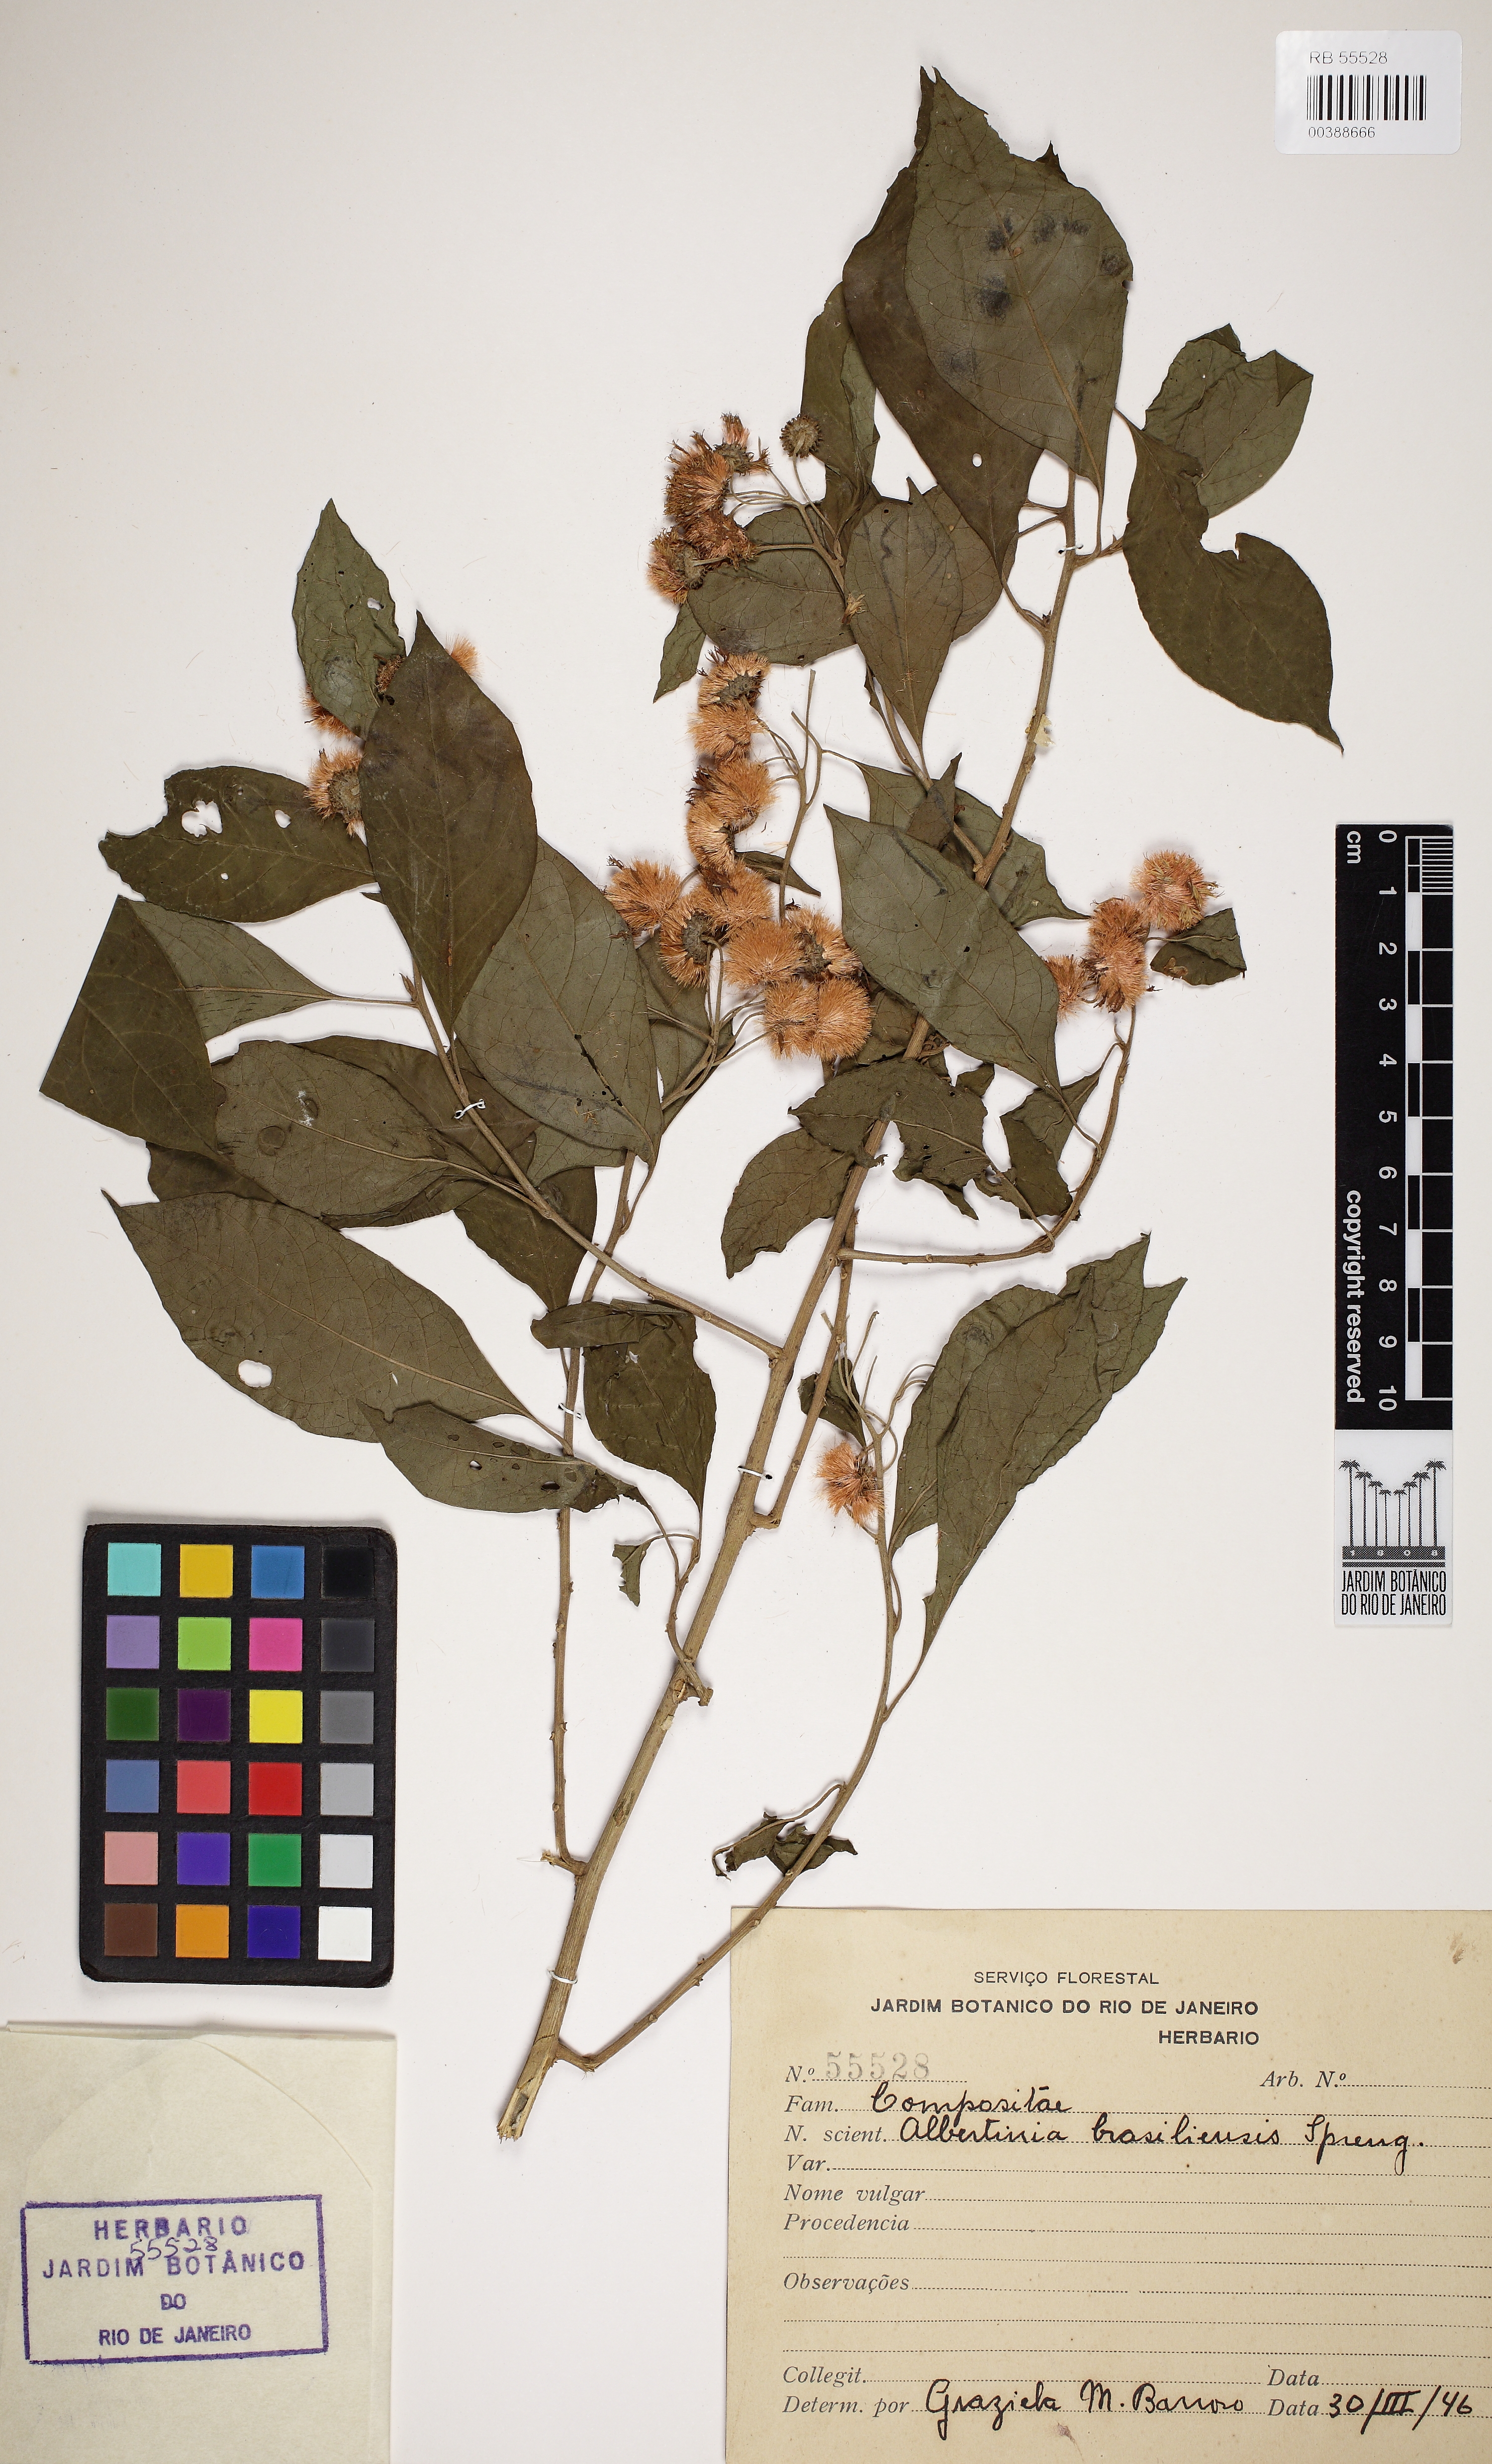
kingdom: Plantae
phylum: Tracheophyta
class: Magnoliopsida
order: Asterales
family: Asteraceae
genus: Albertinia
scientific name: Albertinia brasiliensis
